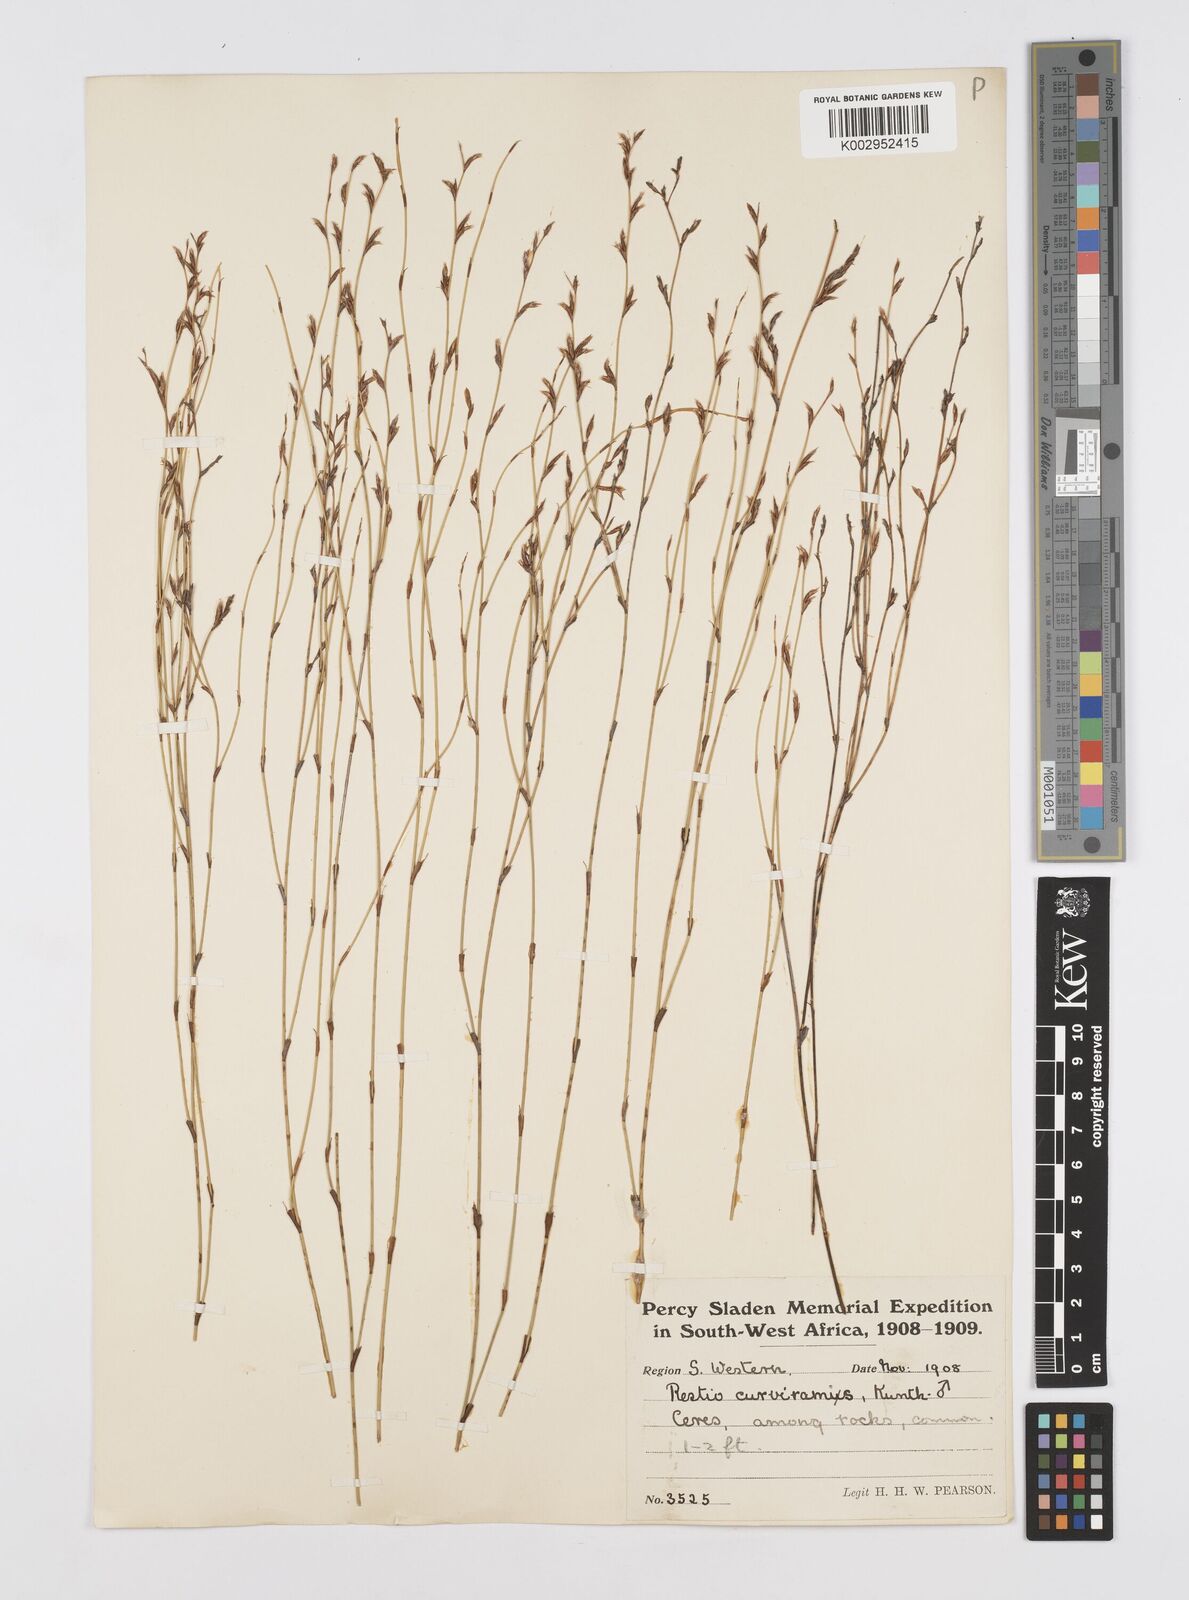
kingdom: Plantae
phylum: Tracheophyta
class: Liliopsida
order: Poales
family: Restionaceae
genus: Restio
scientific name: Restio curviramis
